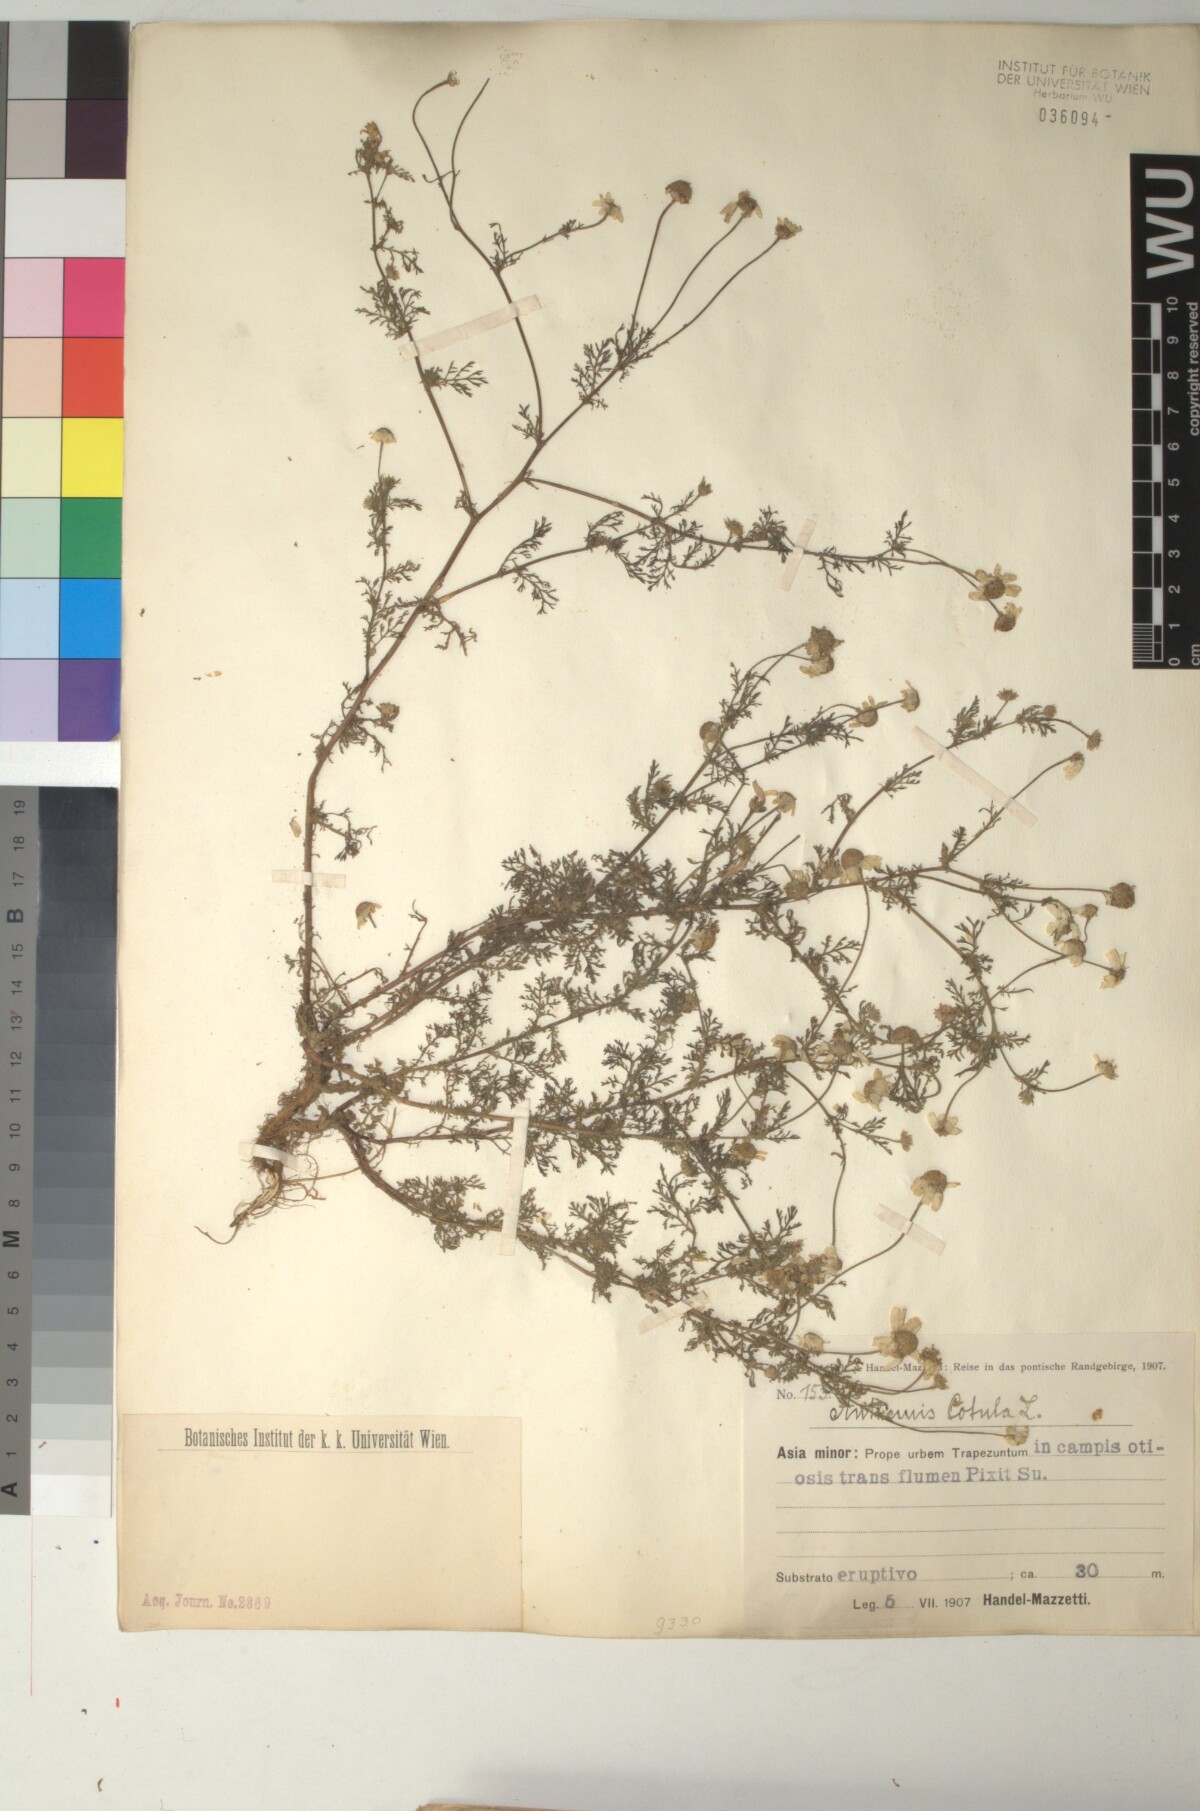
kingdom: Plantae
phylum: Tracheophyta
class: Magnoliopsida
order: Asterales
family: Asteraceae
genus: Anthemis
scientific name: Anthemis cotula
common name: Stinking chamomile
